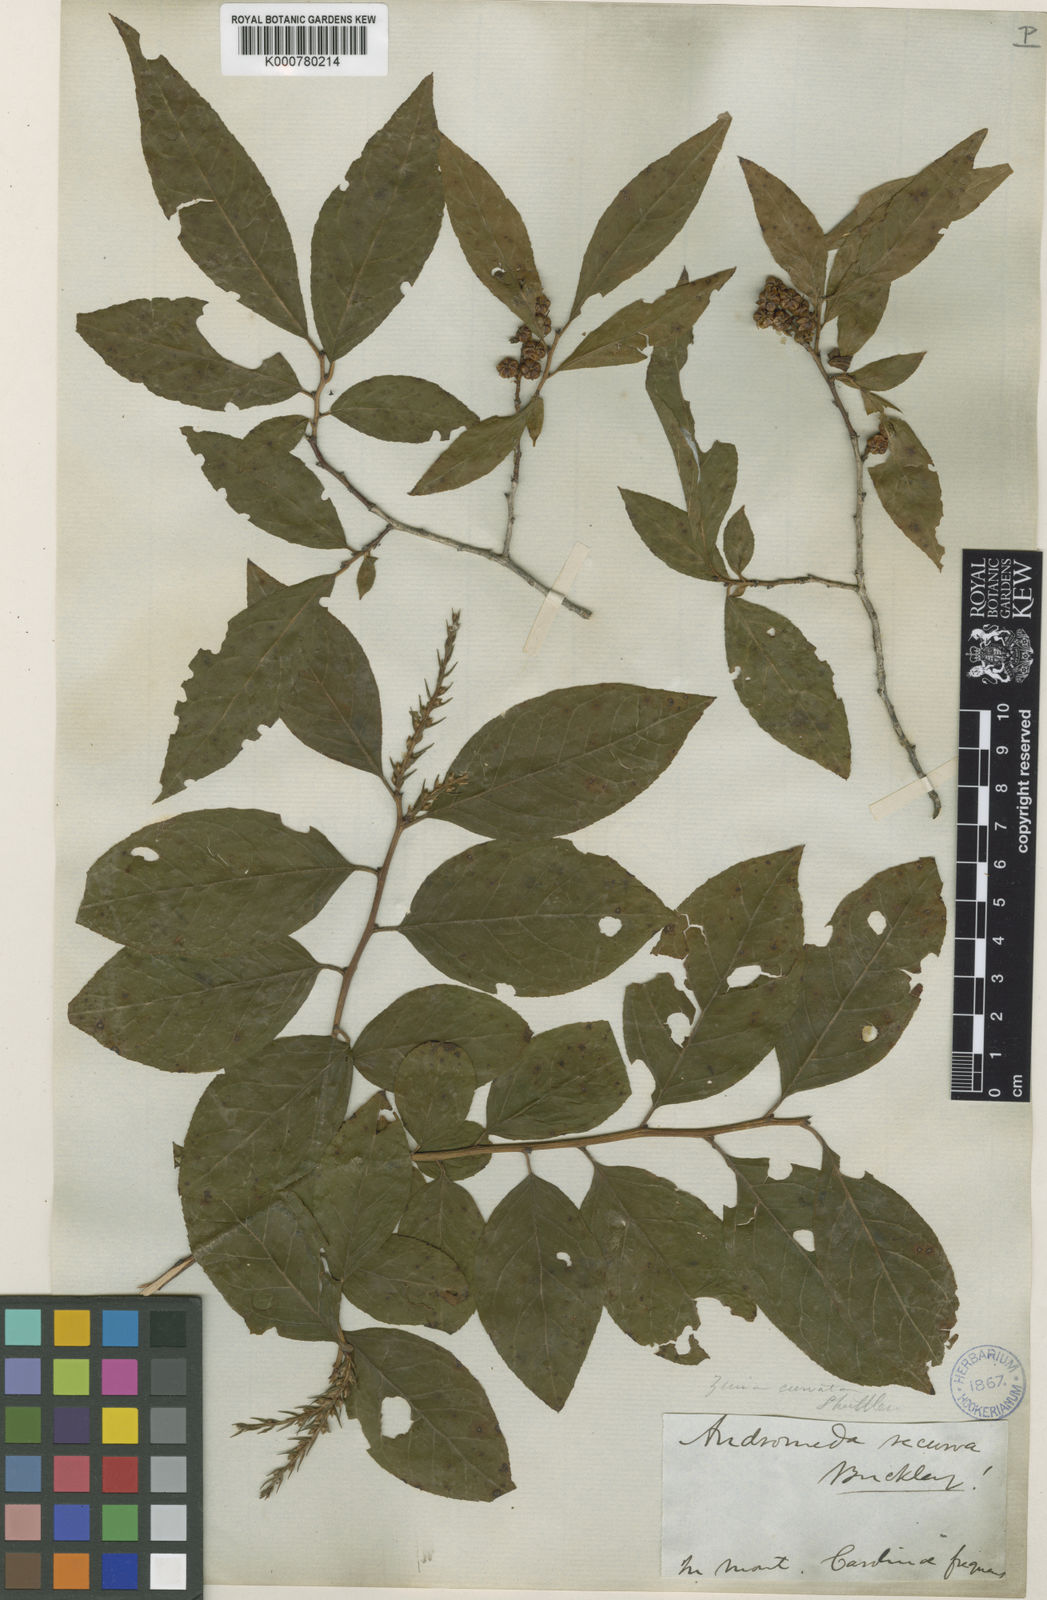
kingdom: Plantae
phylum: Tracheophyta
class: Magnoliopsida
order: Ericales
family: Ericaceae
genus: Eubotrys
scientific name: Eubotrys recurva
